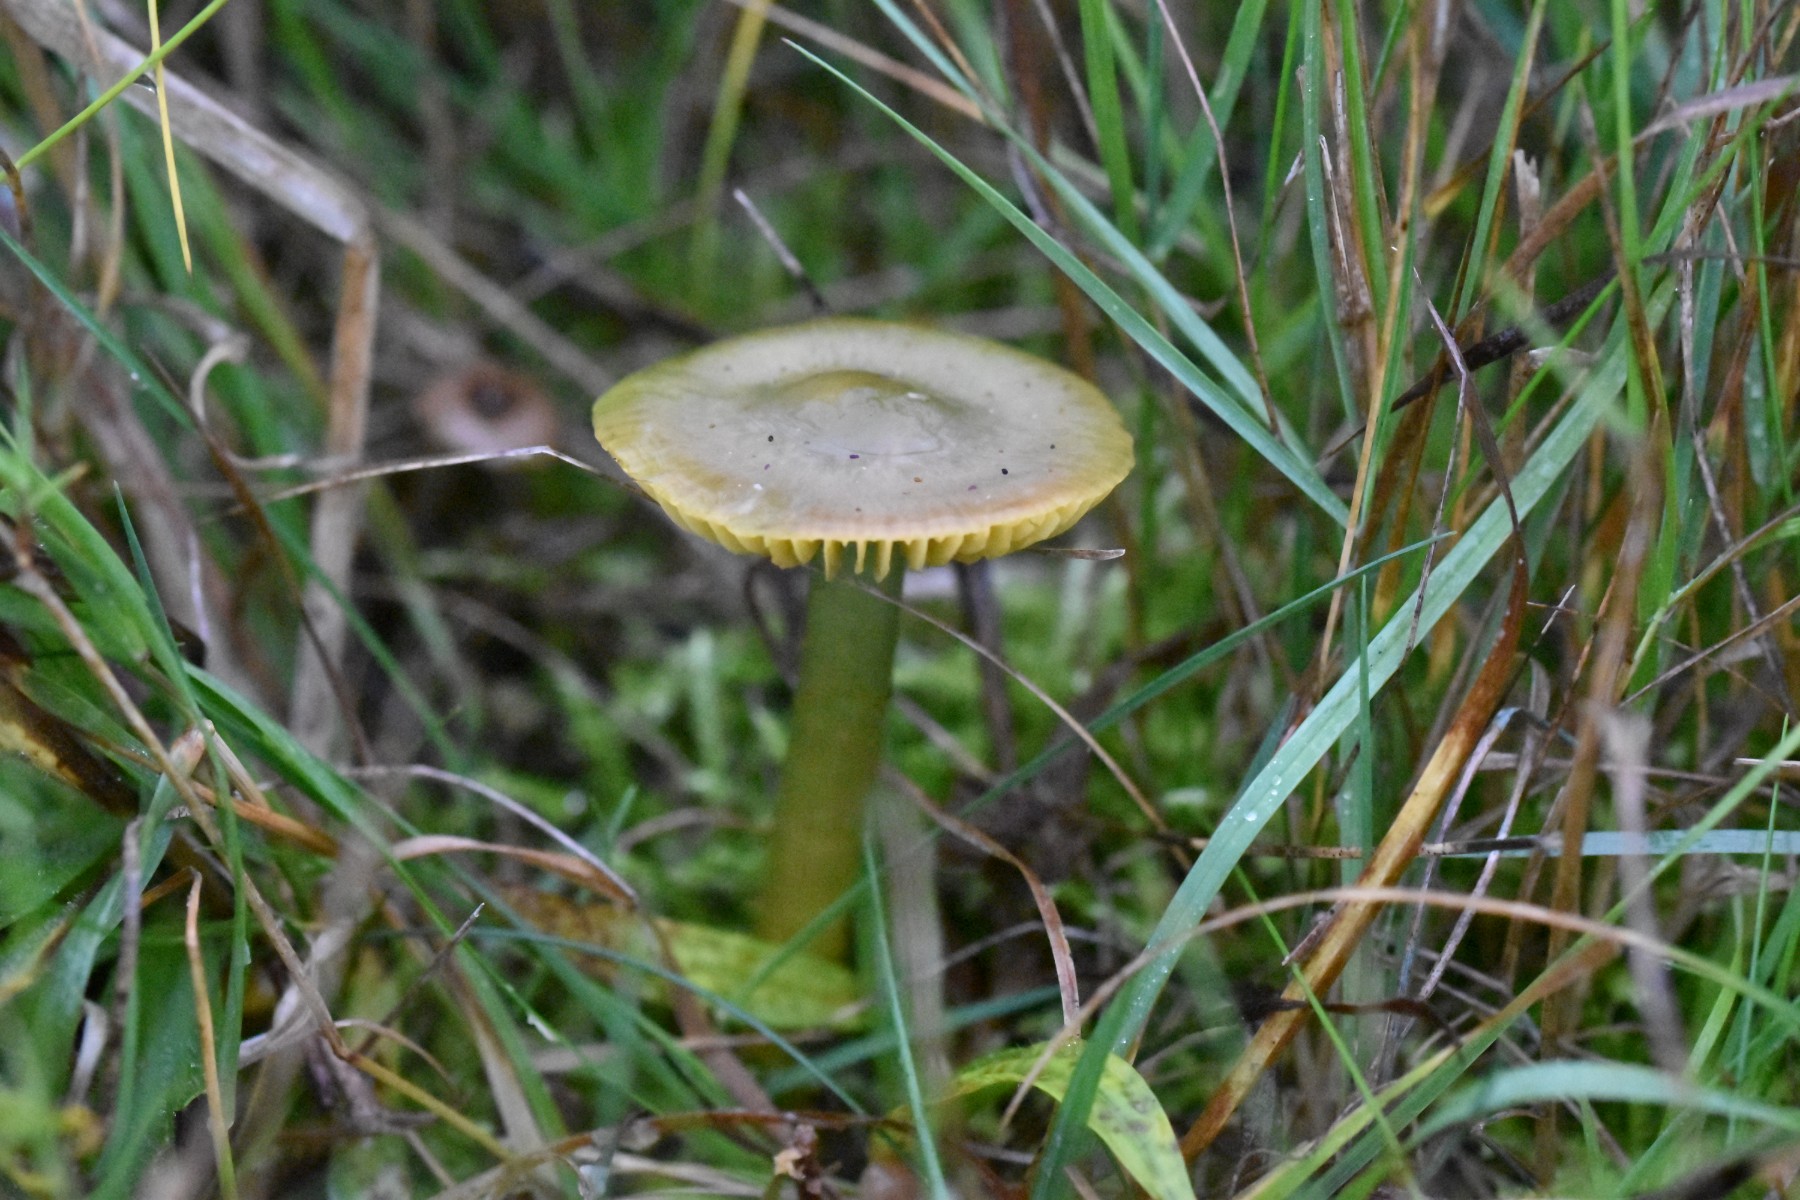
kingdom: Fungi
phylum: Basidiomycota
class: Agaricomycetes
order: Agaricales
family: Hygrophoraceae
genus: Gliophorus
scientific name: Gliophorus psittacinus
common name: papegøje-vokshat
